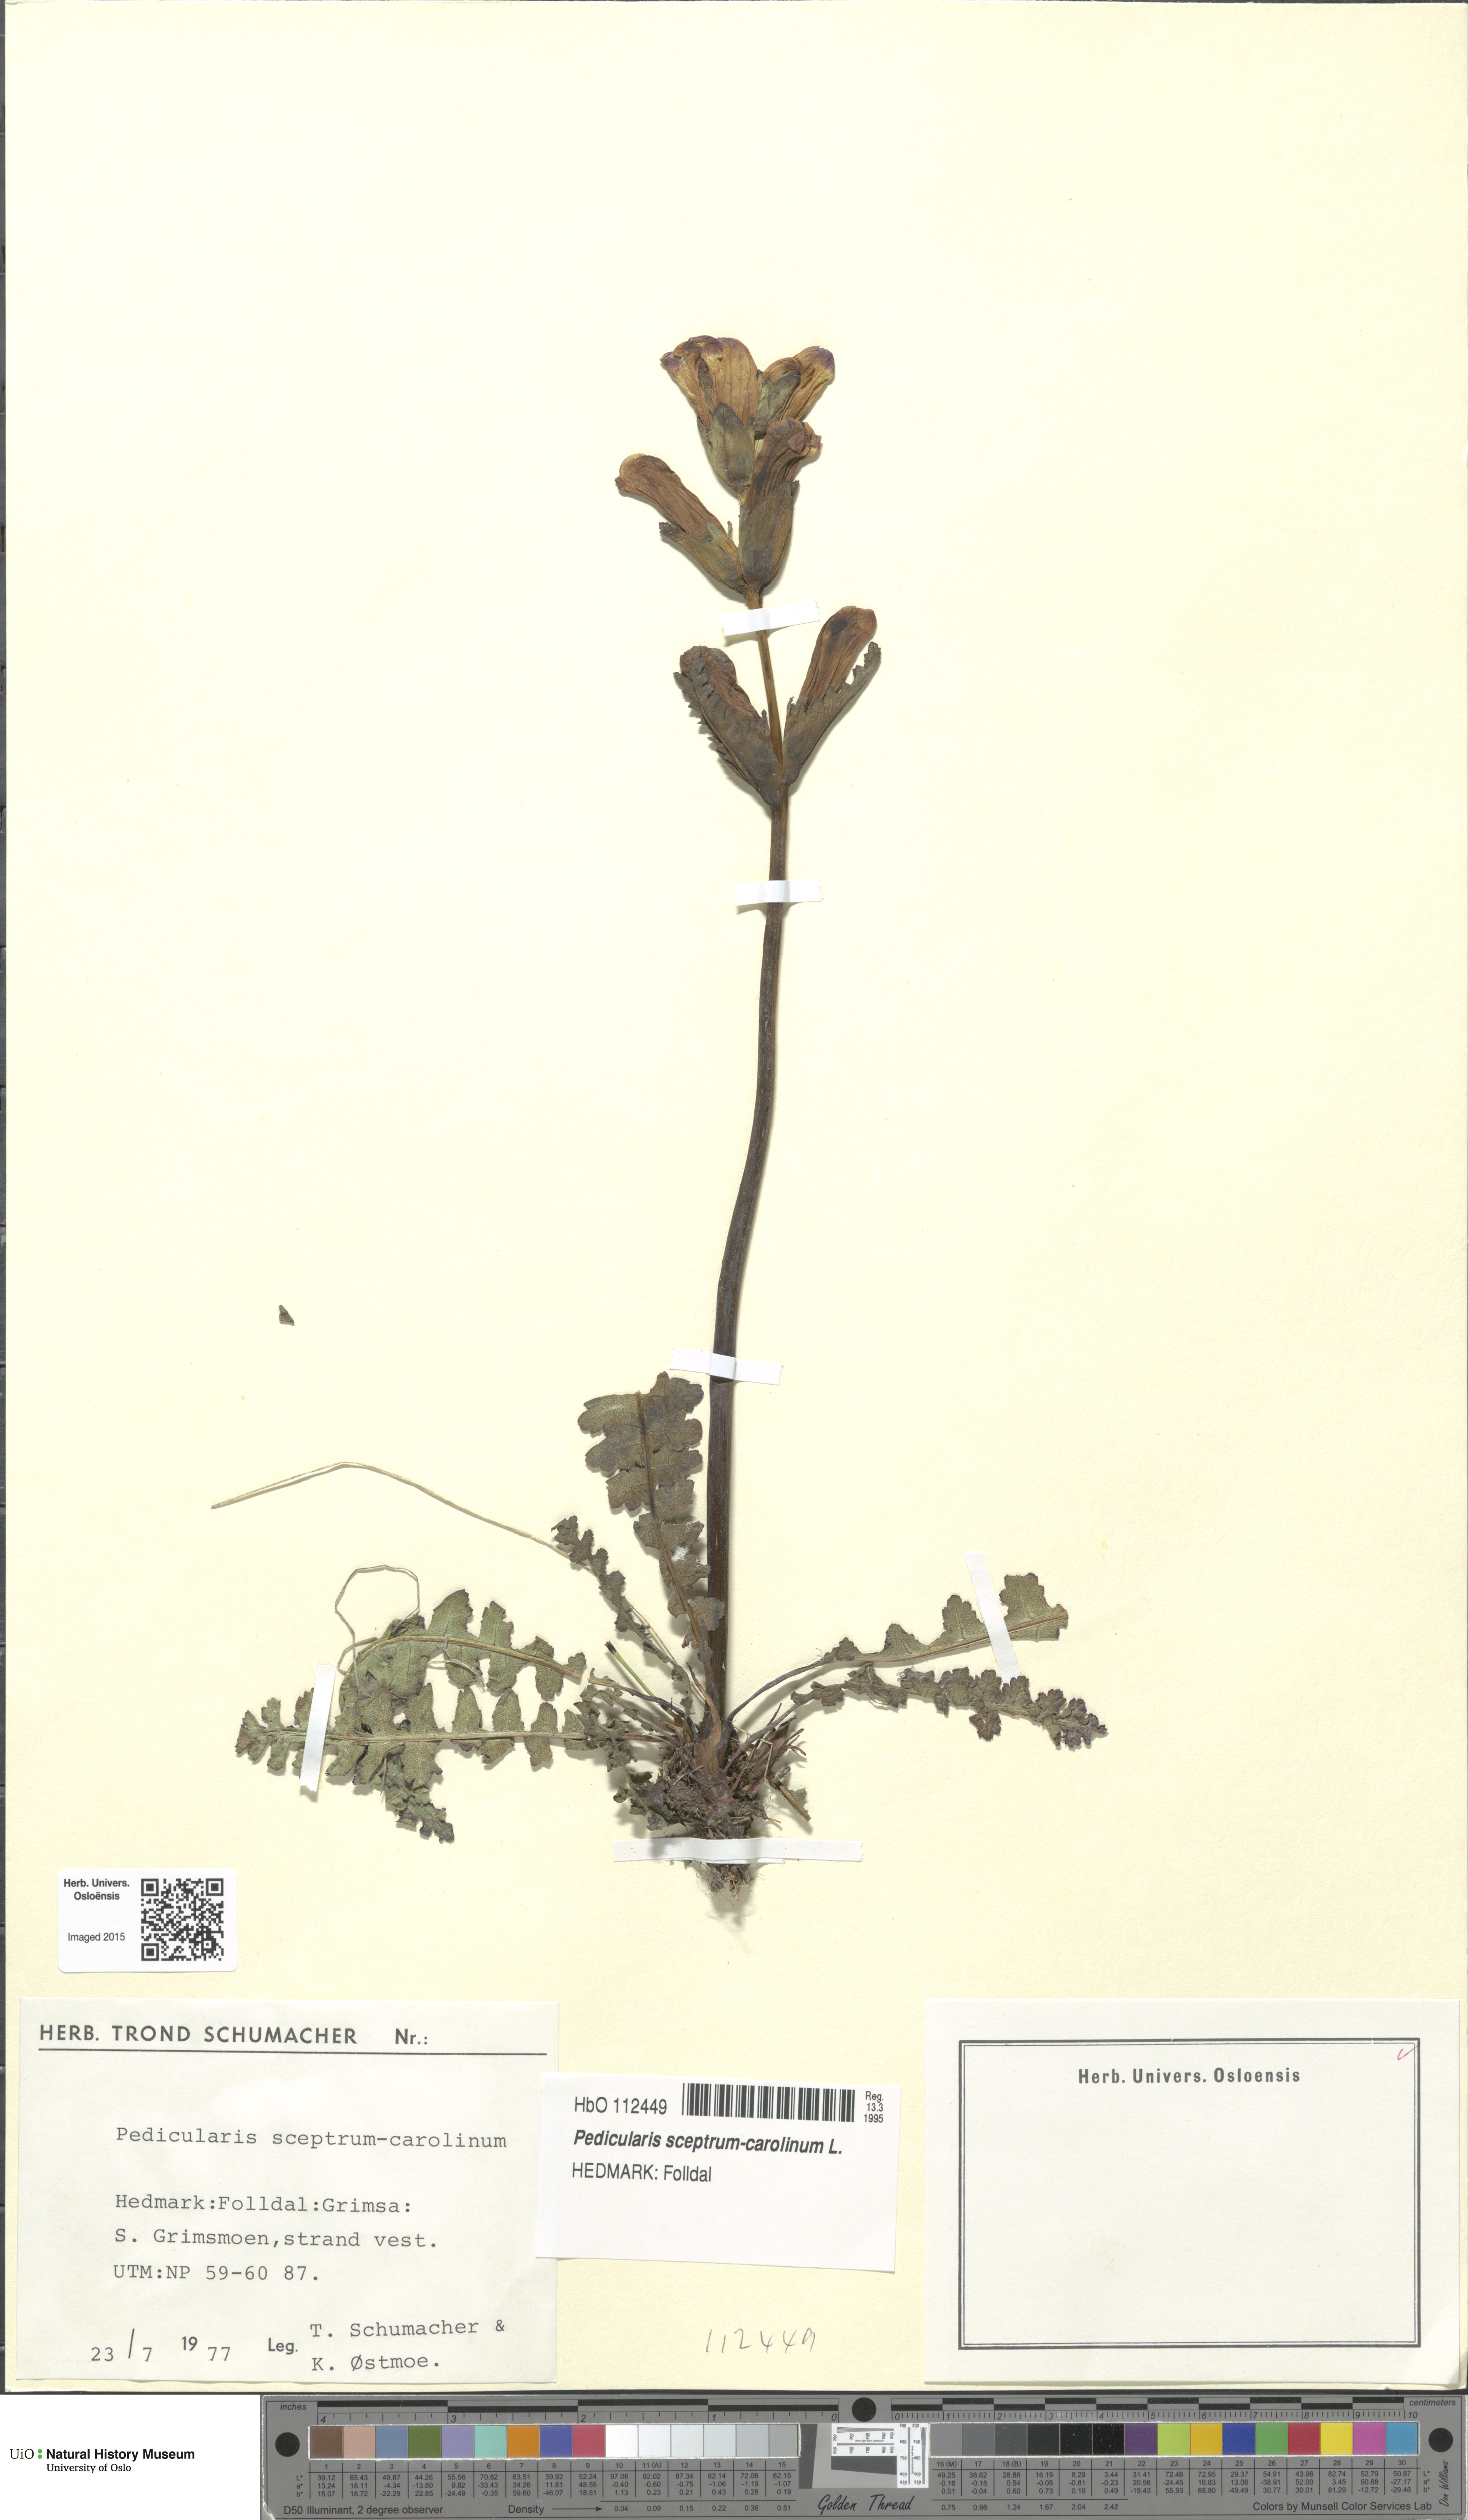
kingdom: Plantae
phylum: Tracheophyta
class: Magnoliopsida
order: Lamiales
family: Orobanchaceae
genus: Pedicularis
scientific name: Pedicularis sceptrum-carolinum
